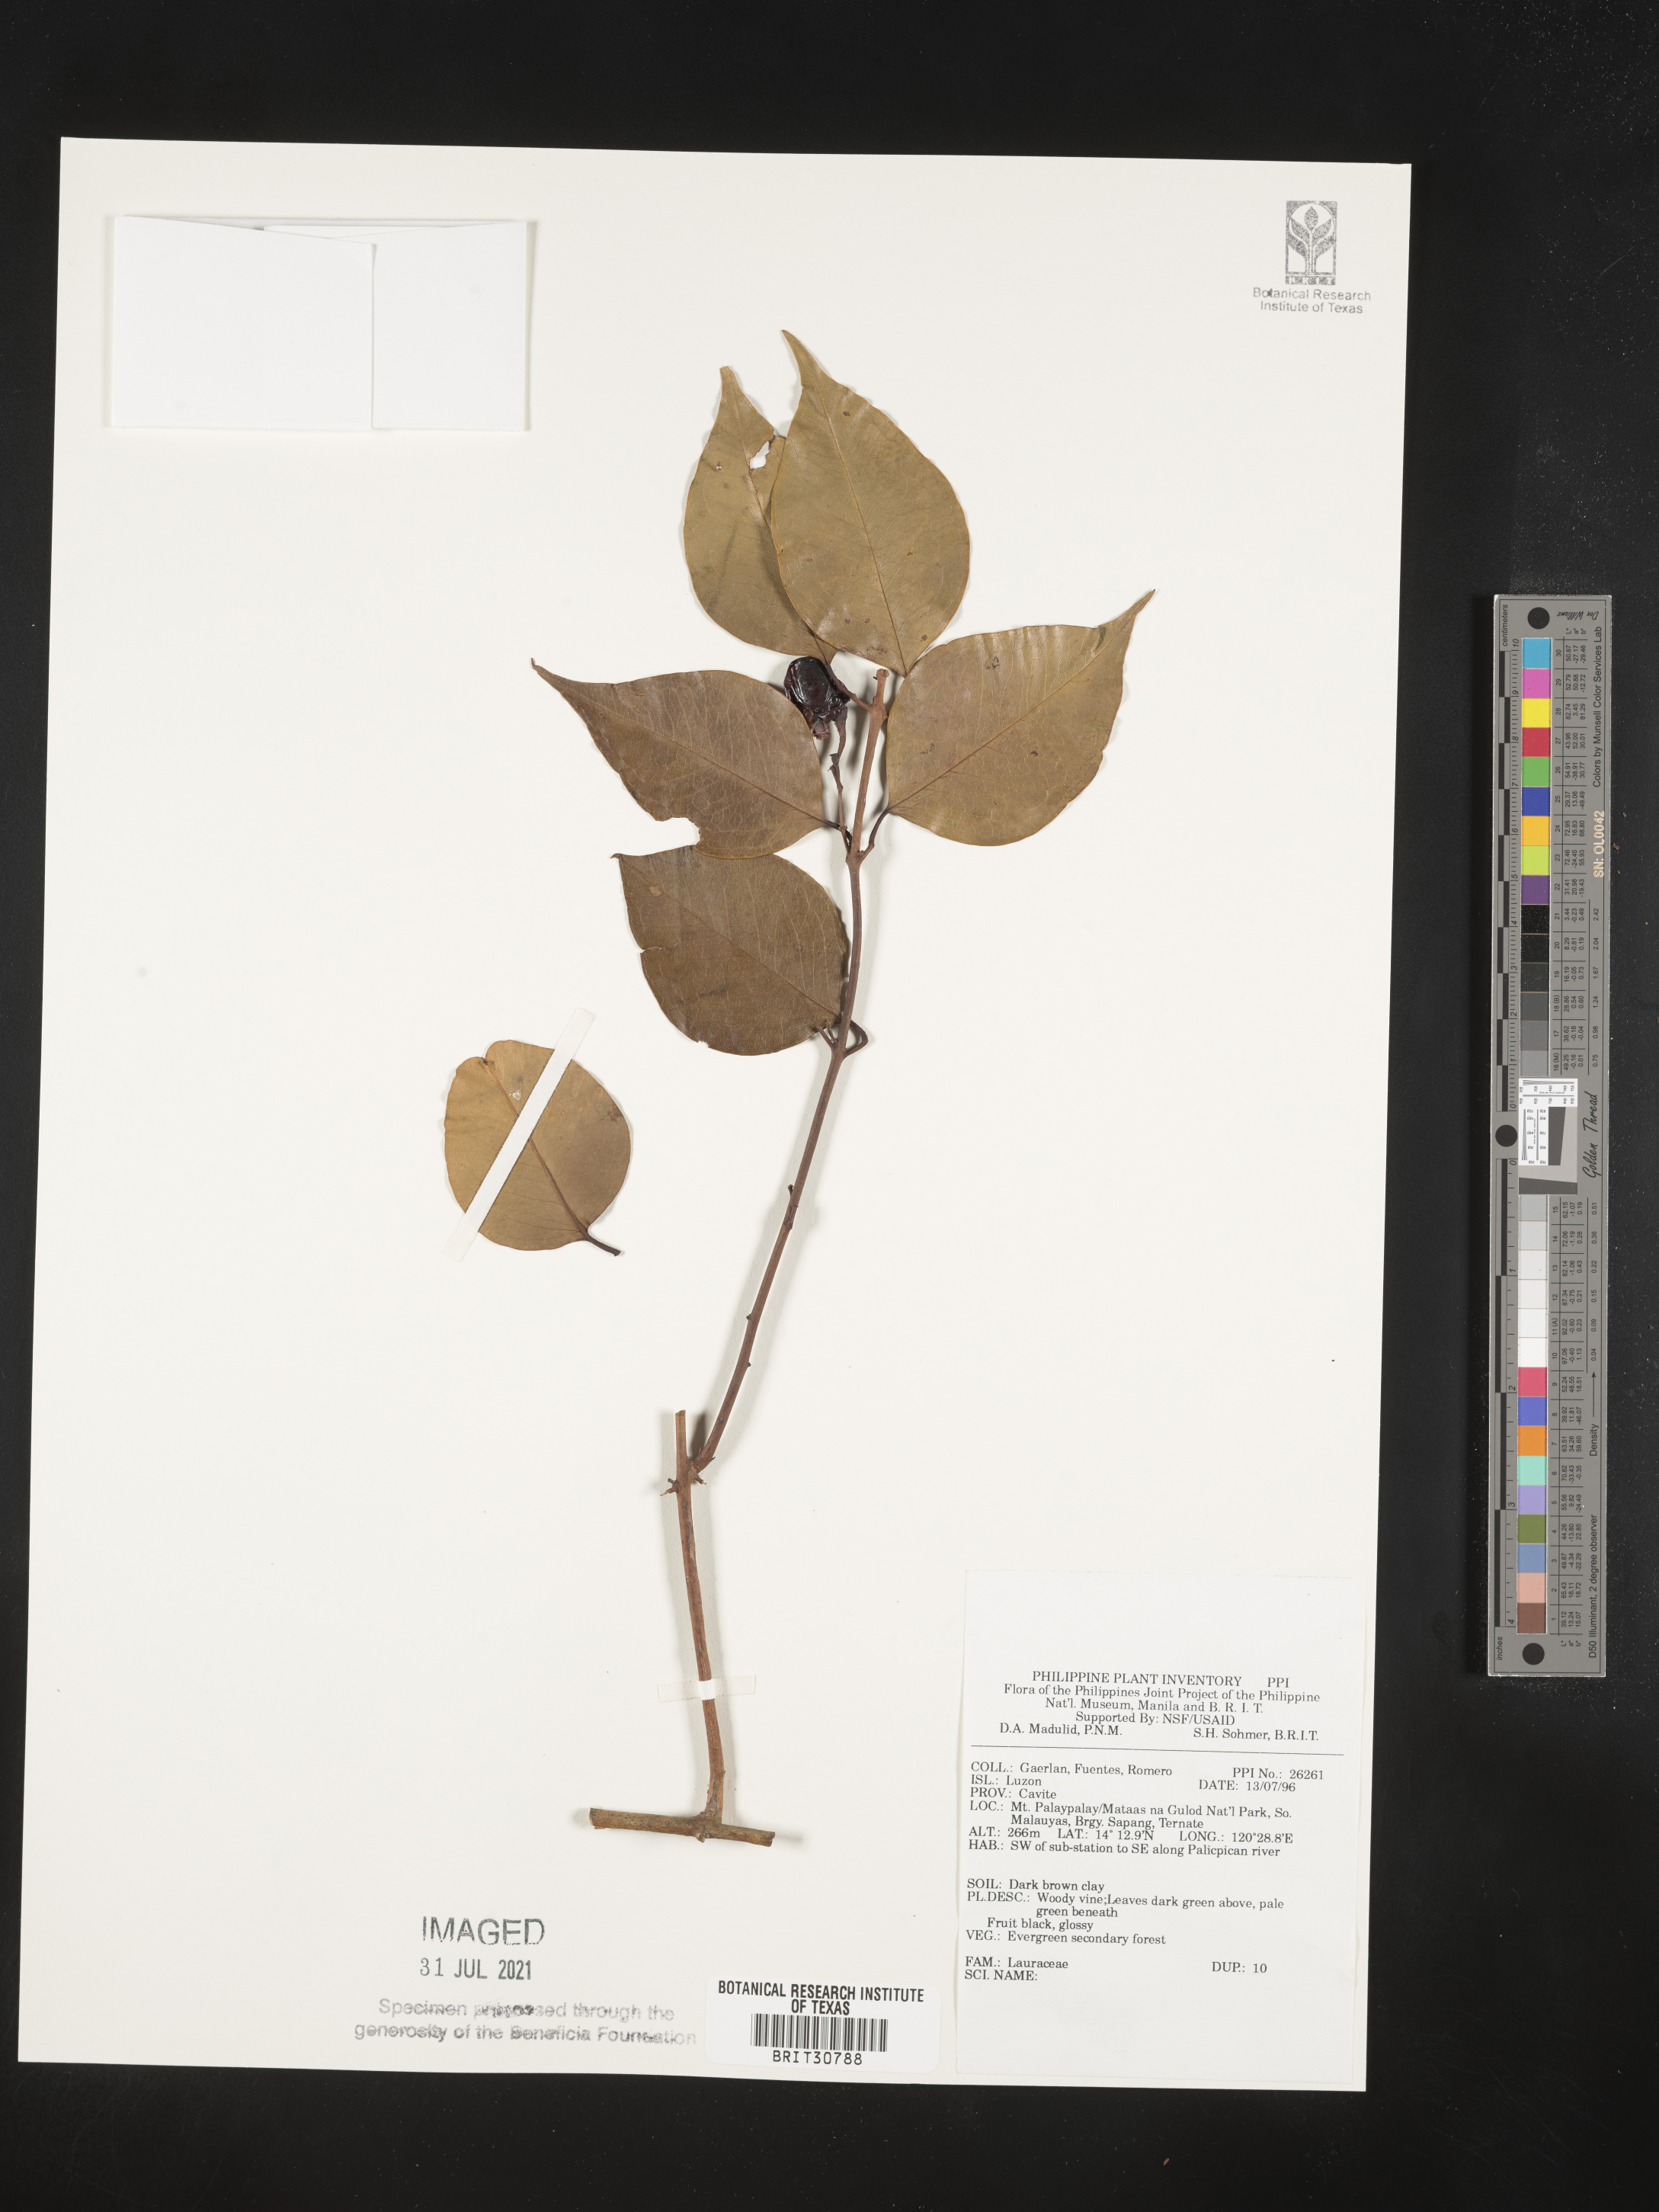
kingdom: Plantae
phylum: Tracheophyta
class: Magnoliopsida
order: Laurales
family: Lauraceae
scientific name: Lauraceae
